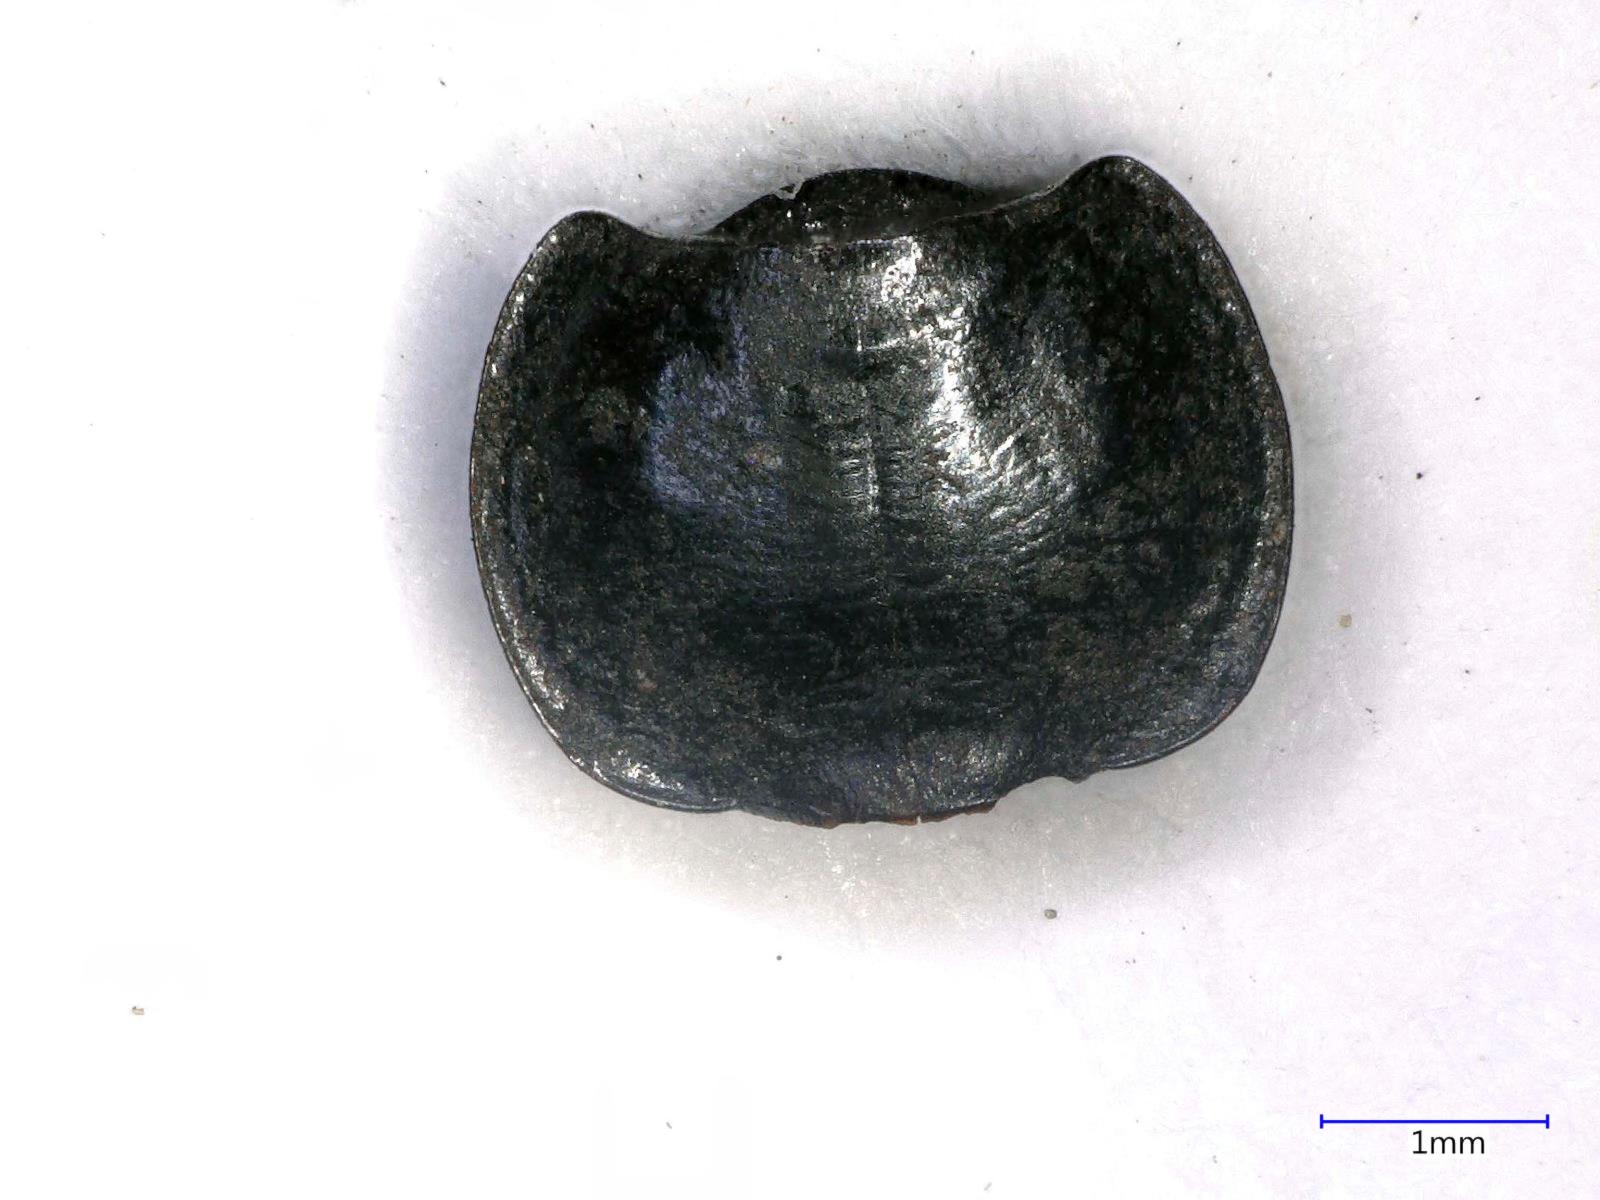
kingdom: Animalia
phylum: Arthropoda
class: Insecta
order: Coleoptera
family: Carabidae
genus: Tanystoma
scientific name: Tanystoma maculicolle
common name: Tule beetle
